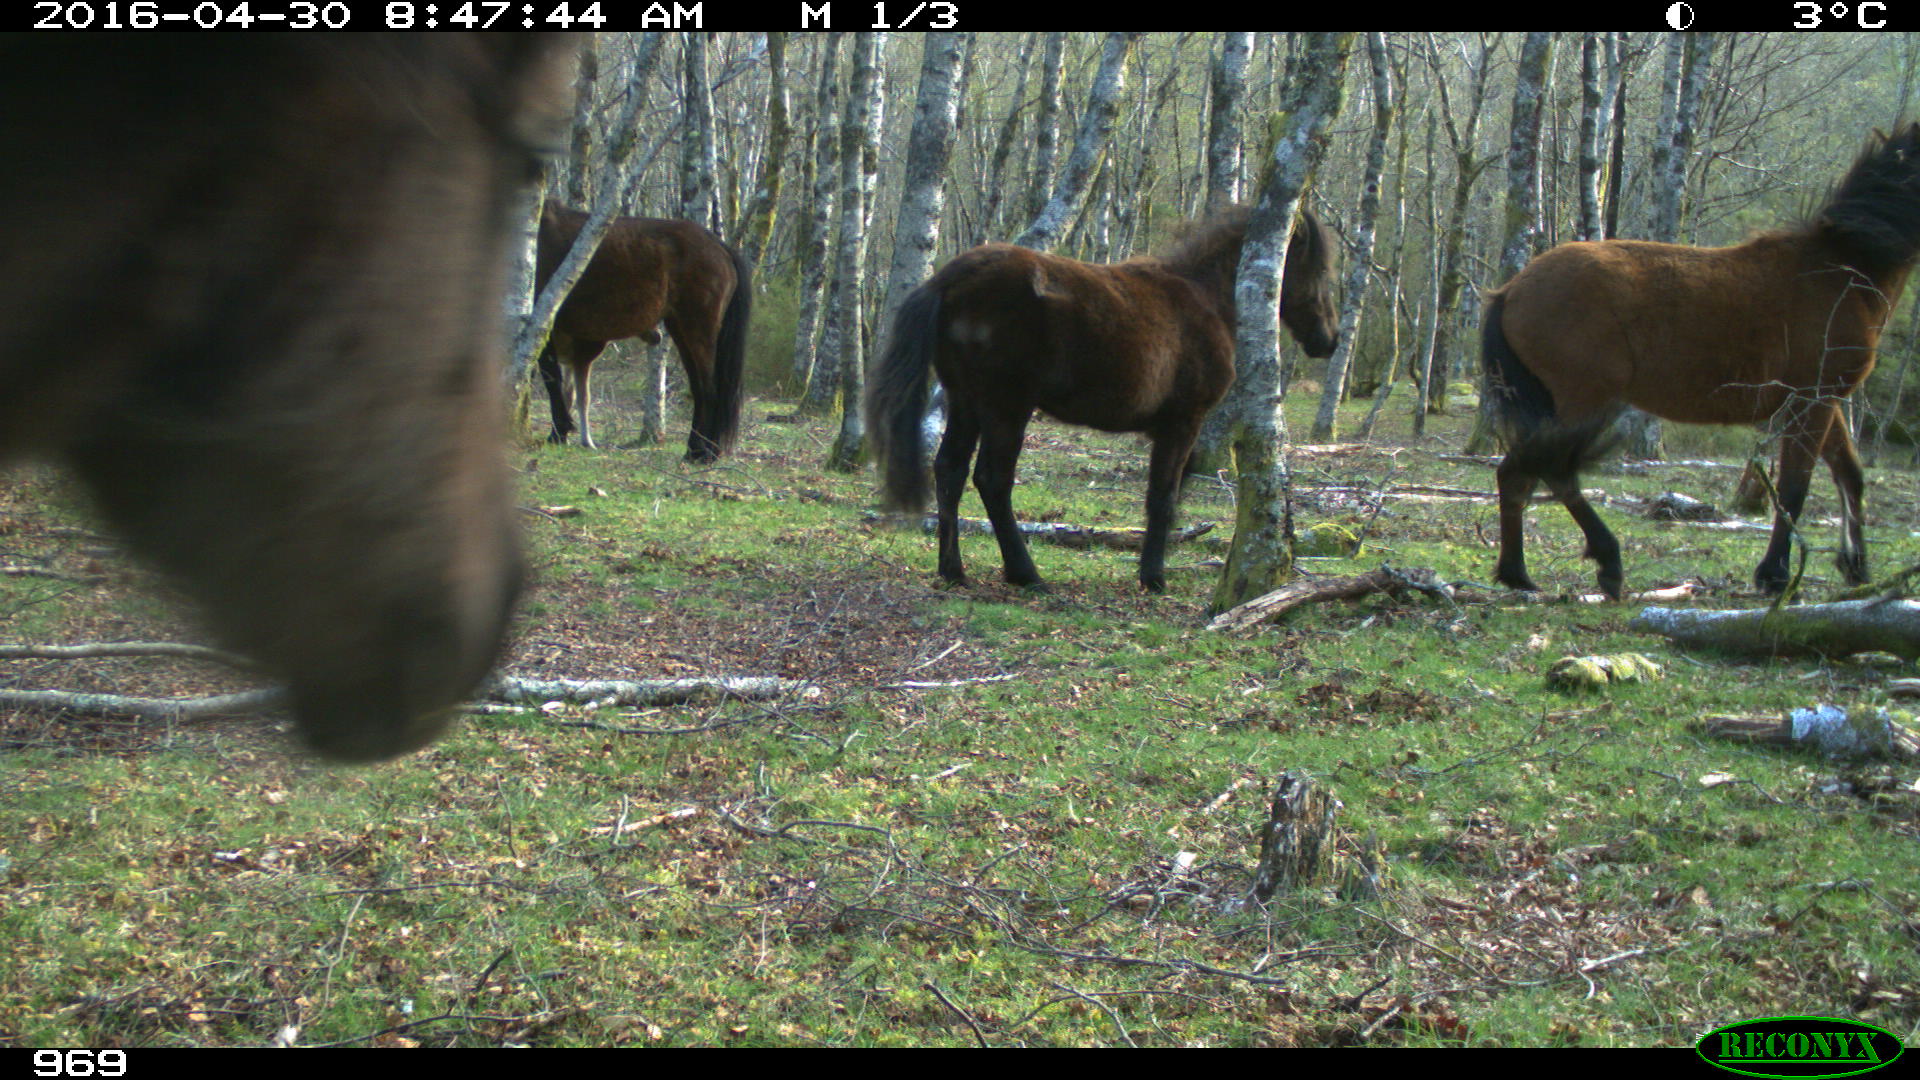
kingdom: Animalia
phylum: Chordata
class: Mammalia
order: Perissodactyla
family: Equidae
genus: Equus
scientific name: Equus caballus
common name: Horse
